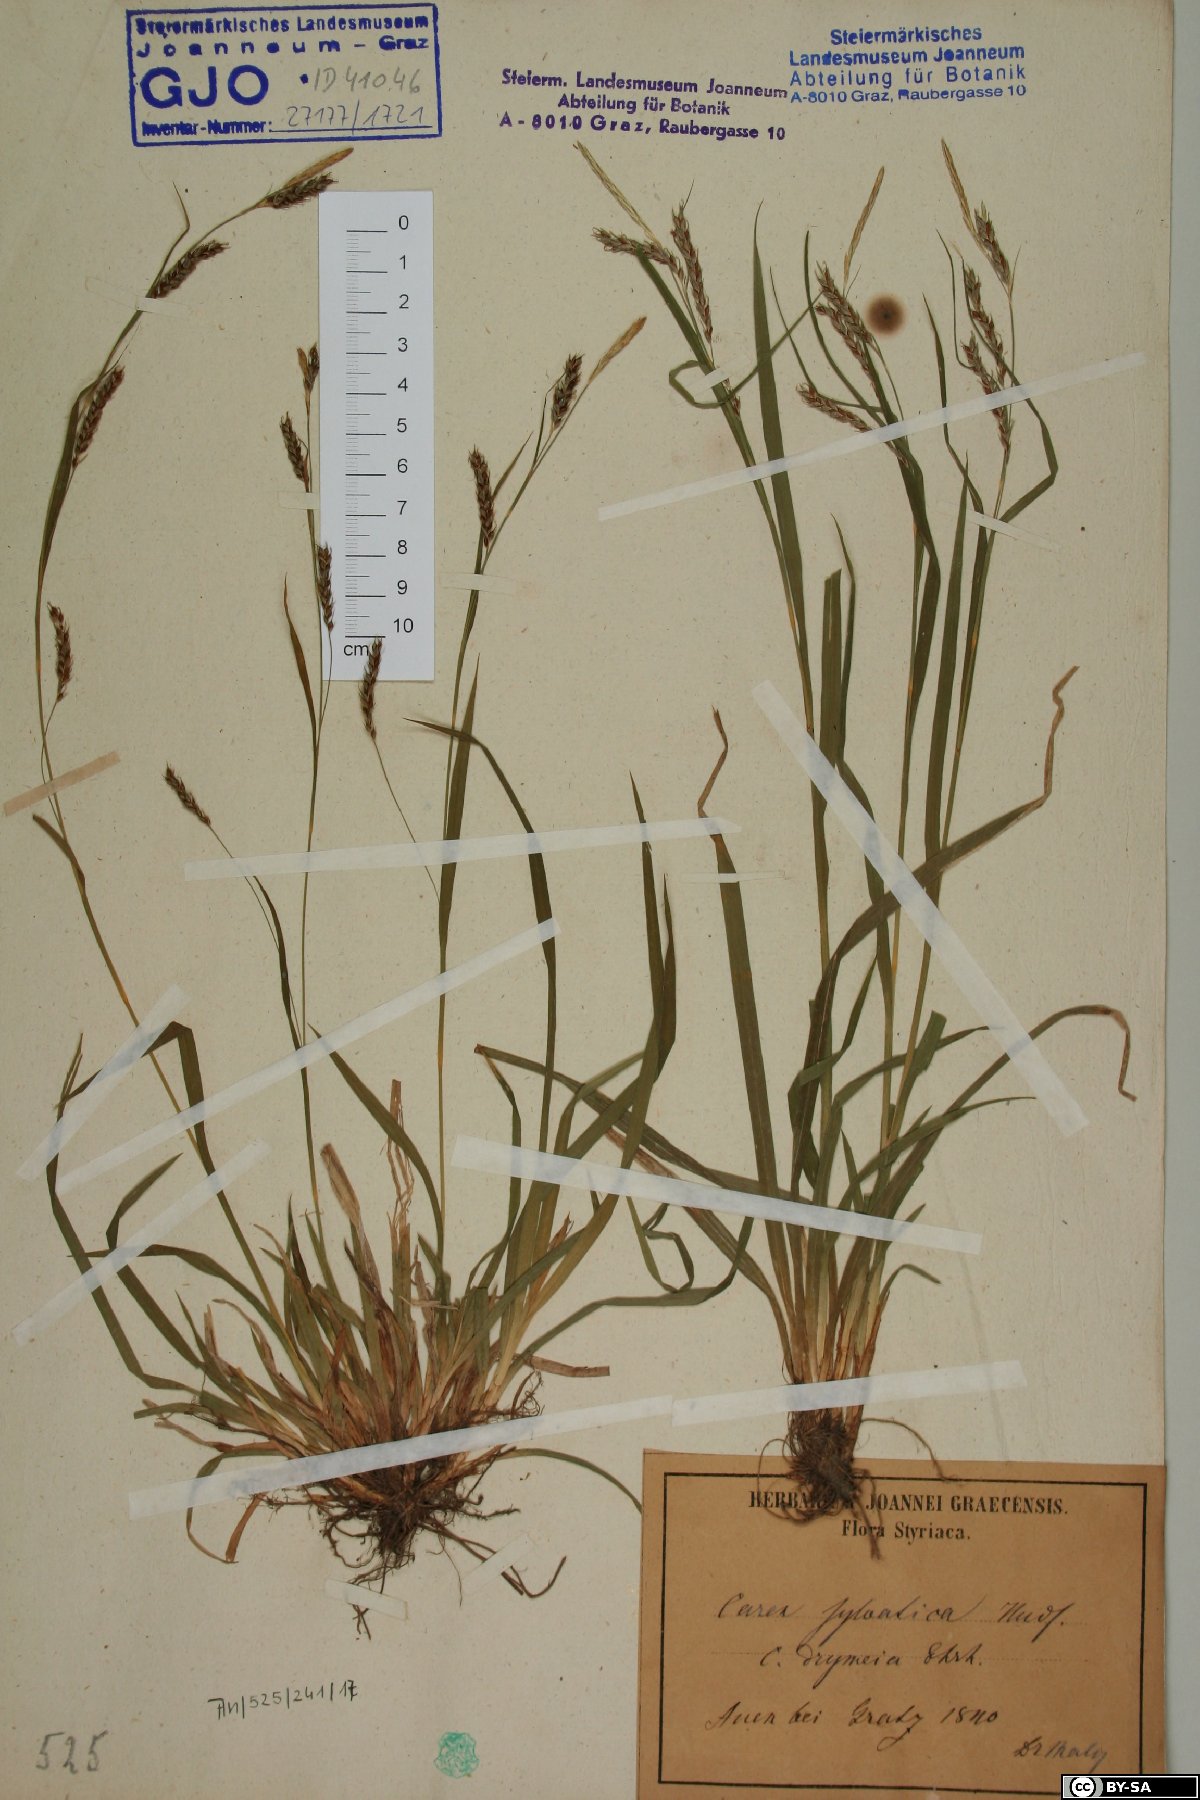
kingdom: Plantae
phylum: Tracheophyta
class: Liliopsida
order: Poales
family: Cyperaceae
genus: Carex
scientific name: Carex sylvatica
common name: Wood-sedge
